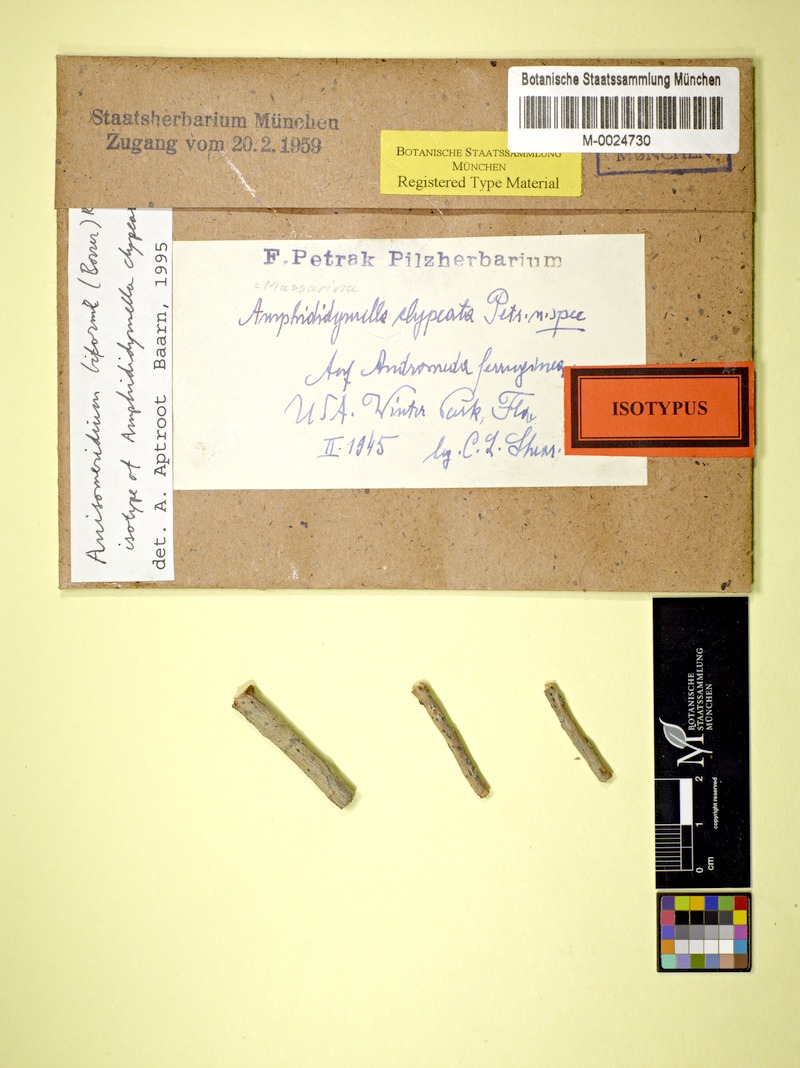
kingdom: Fungi
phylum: Ascomycota
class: Dothideomycetes
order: Monoblastiales
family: Monoblastiaceae
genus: Anisomeridium
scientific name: Anisomeridium biforme
